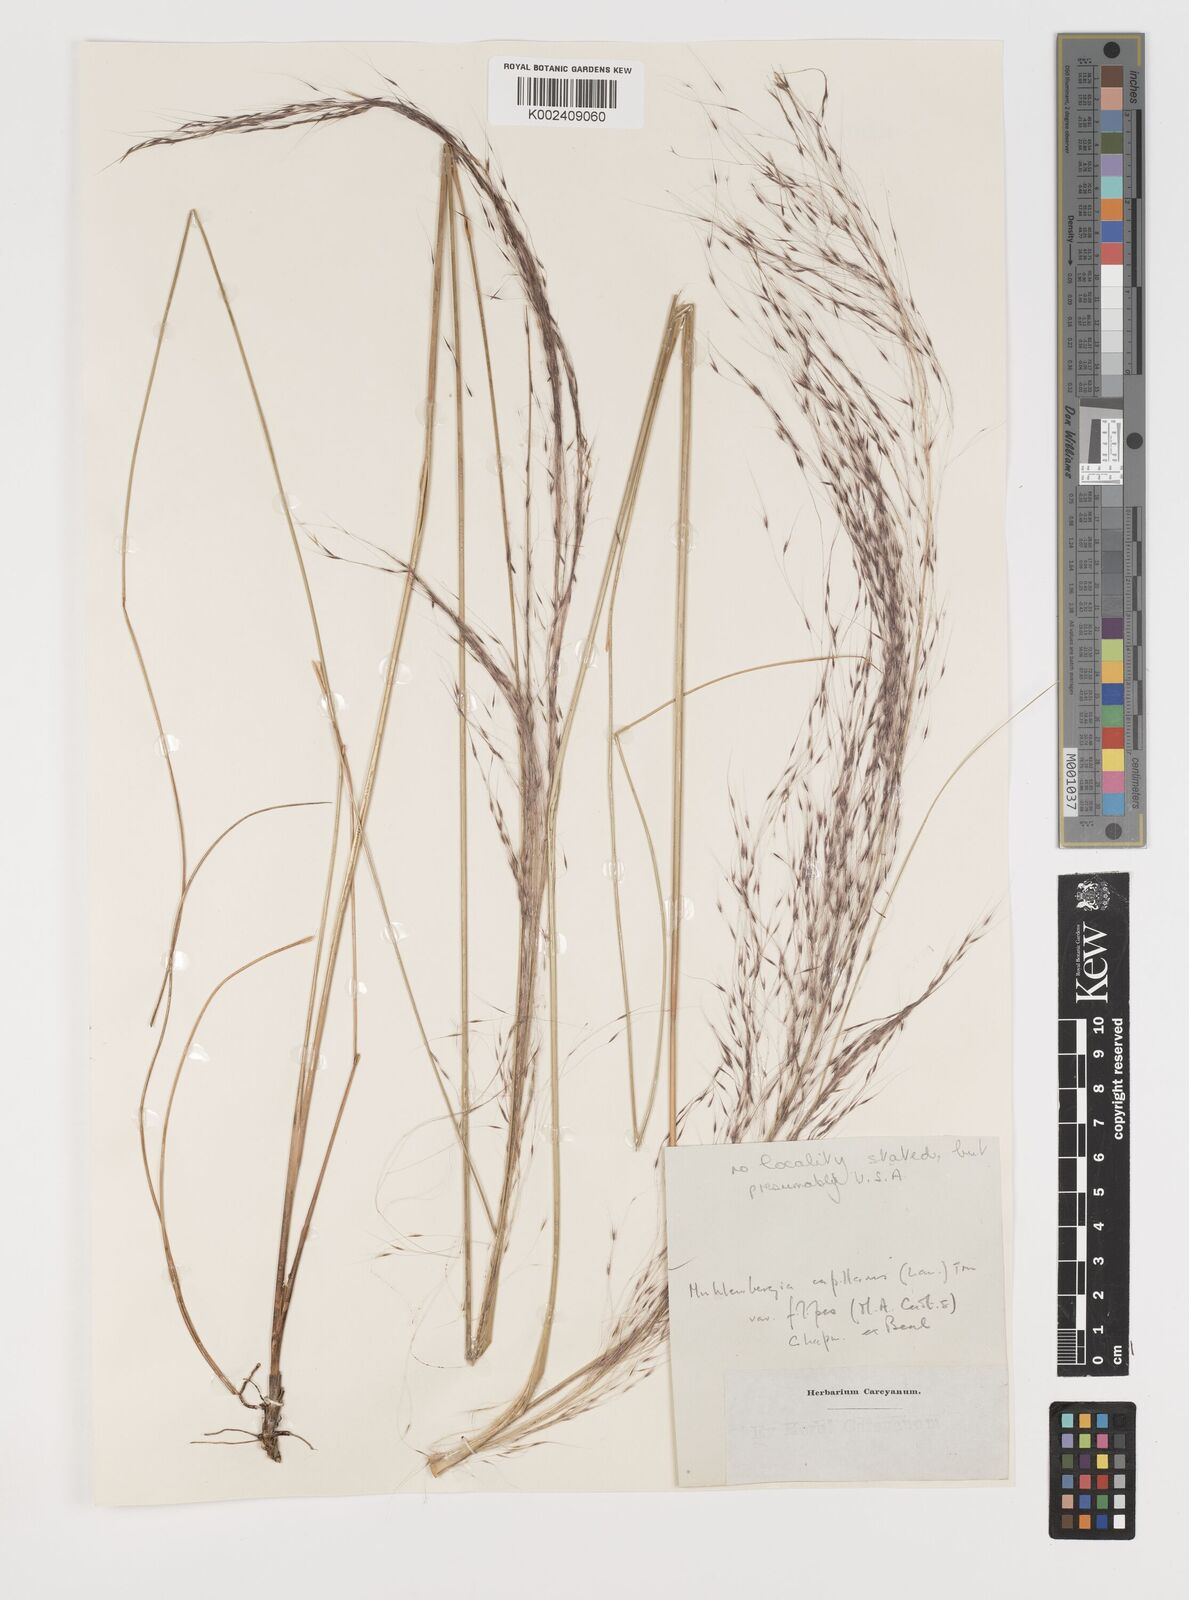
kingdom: Plantae
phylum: Tracheophyta
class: Liliopsida
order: Poales
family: Poaceae
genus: Muhlenbergia
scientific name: Muhlenbergia capillaris
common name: Purple grass
